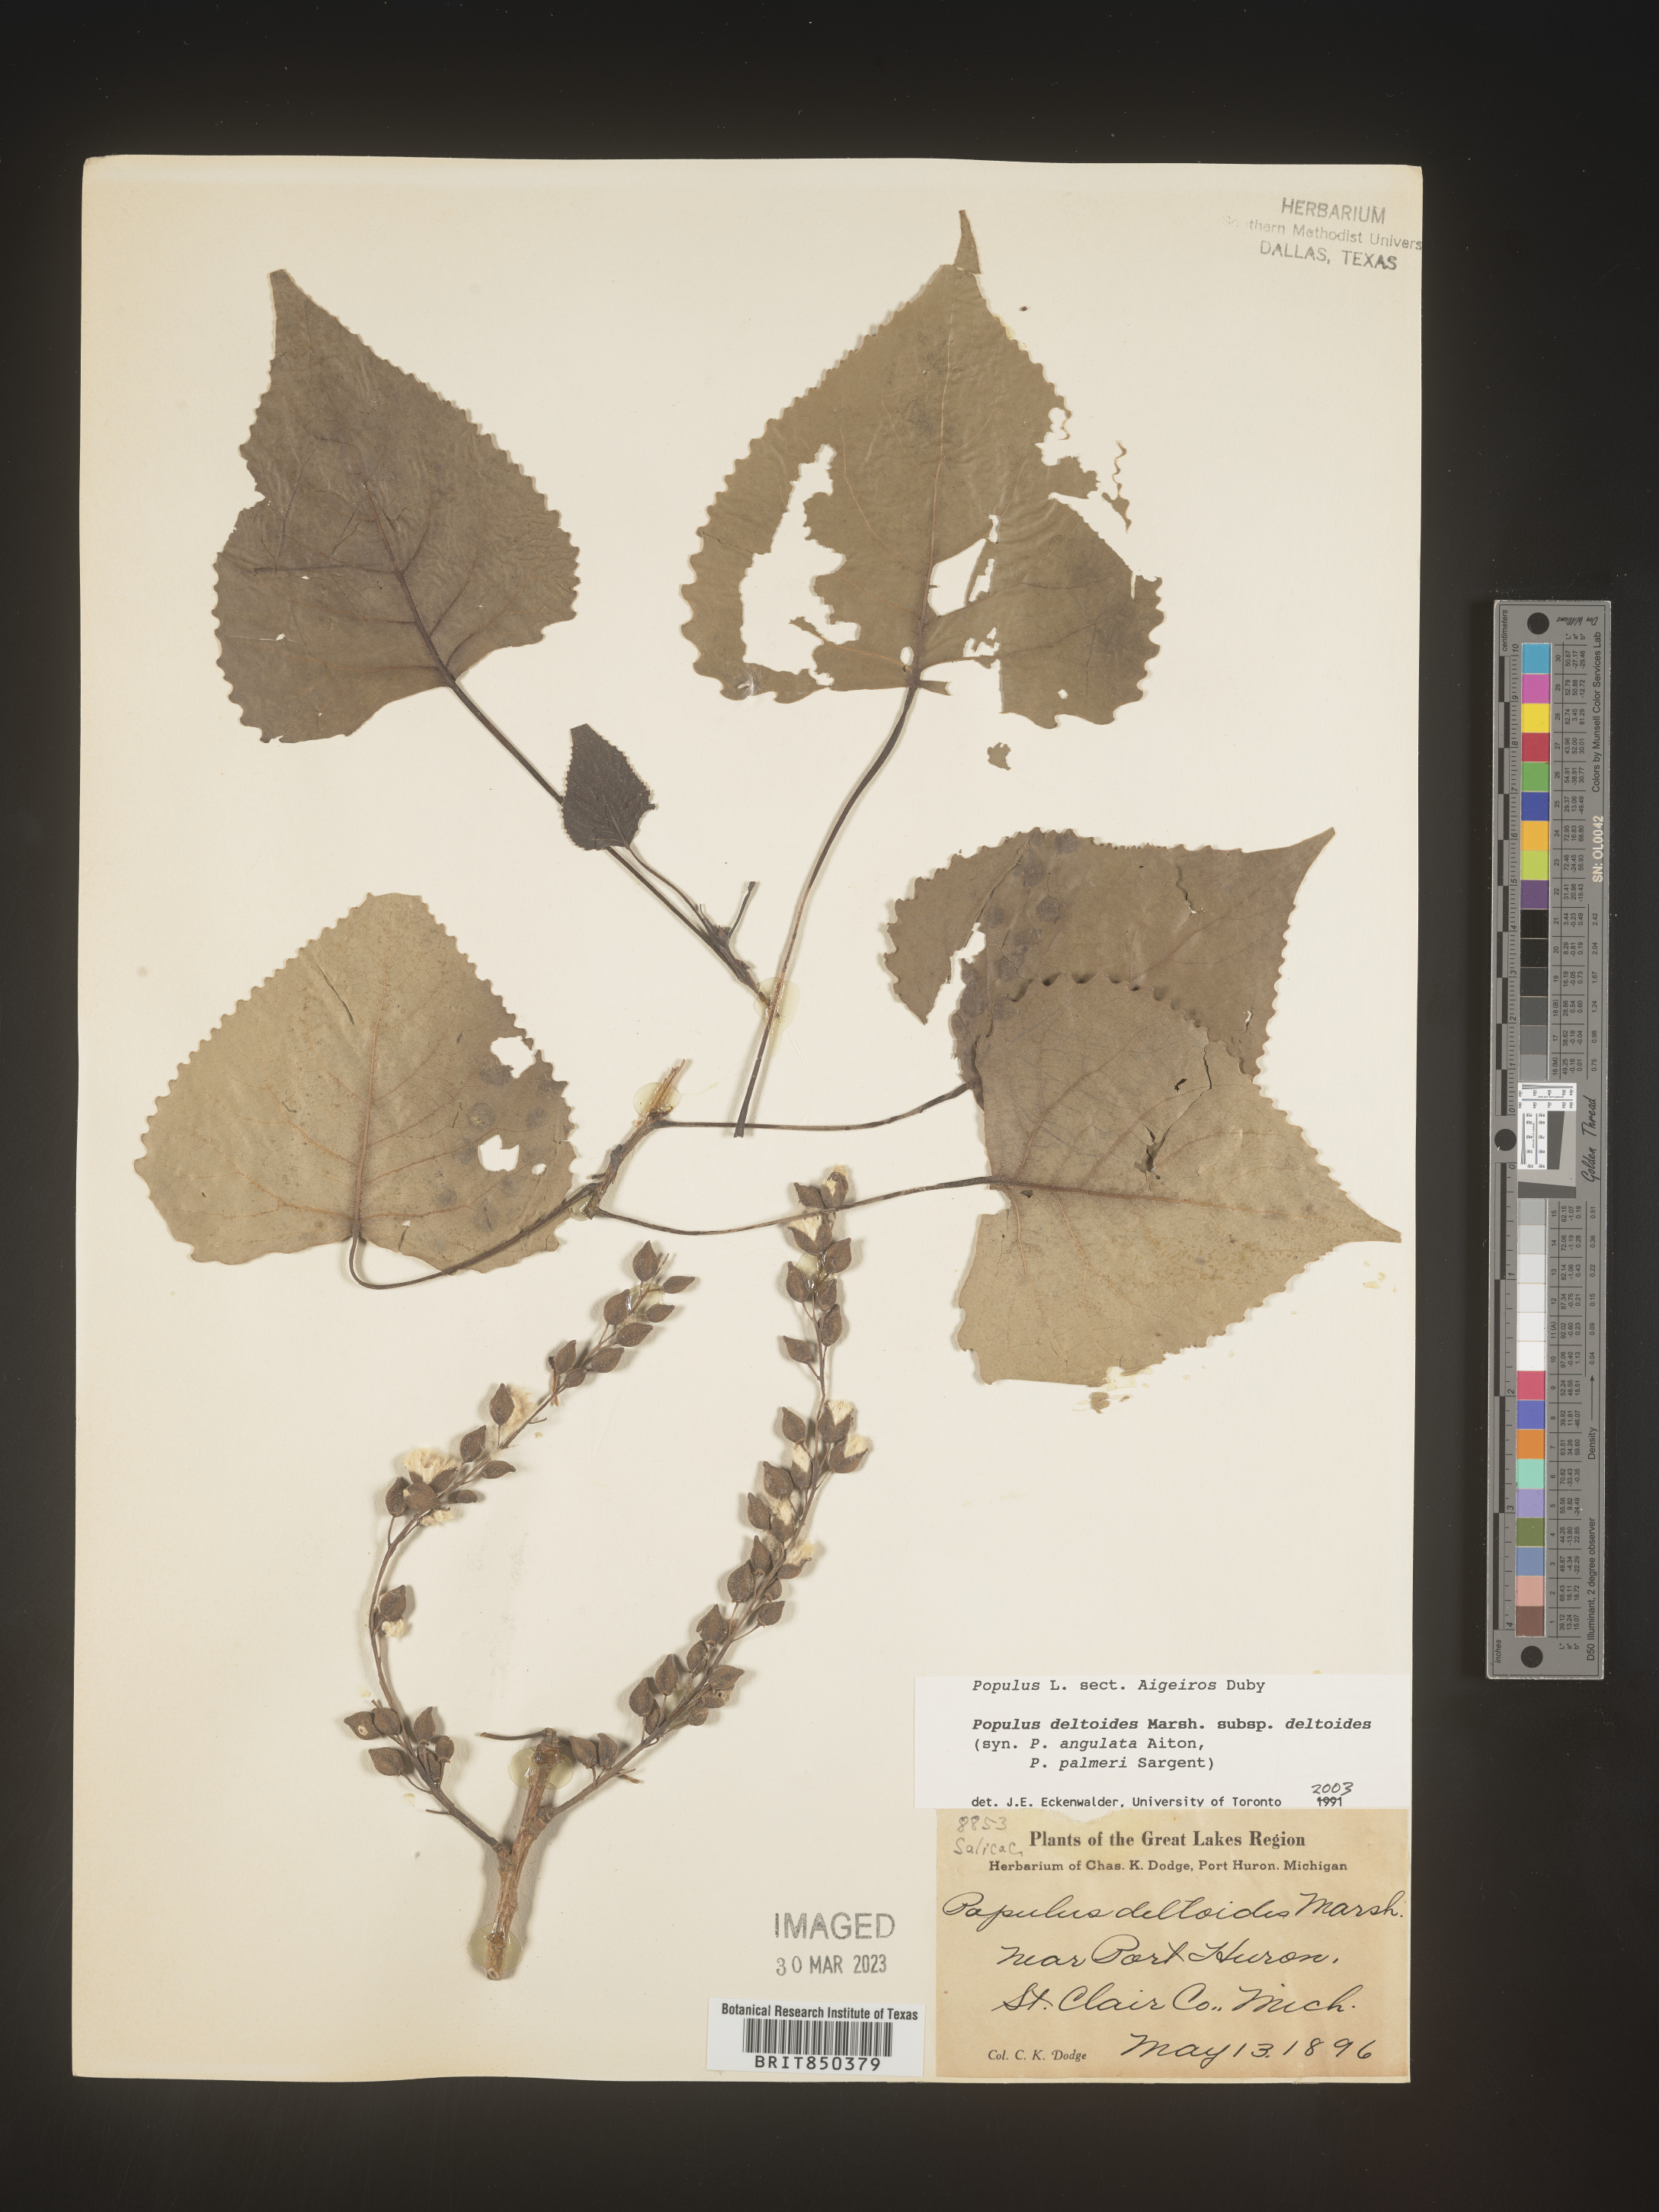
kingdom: Plantae
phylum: Tracheophyta
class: Magnoliopsida
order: Malpighiales
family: Salicaceae
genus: Populus
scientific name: Populus deltoides
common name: Eastern cottonwood
